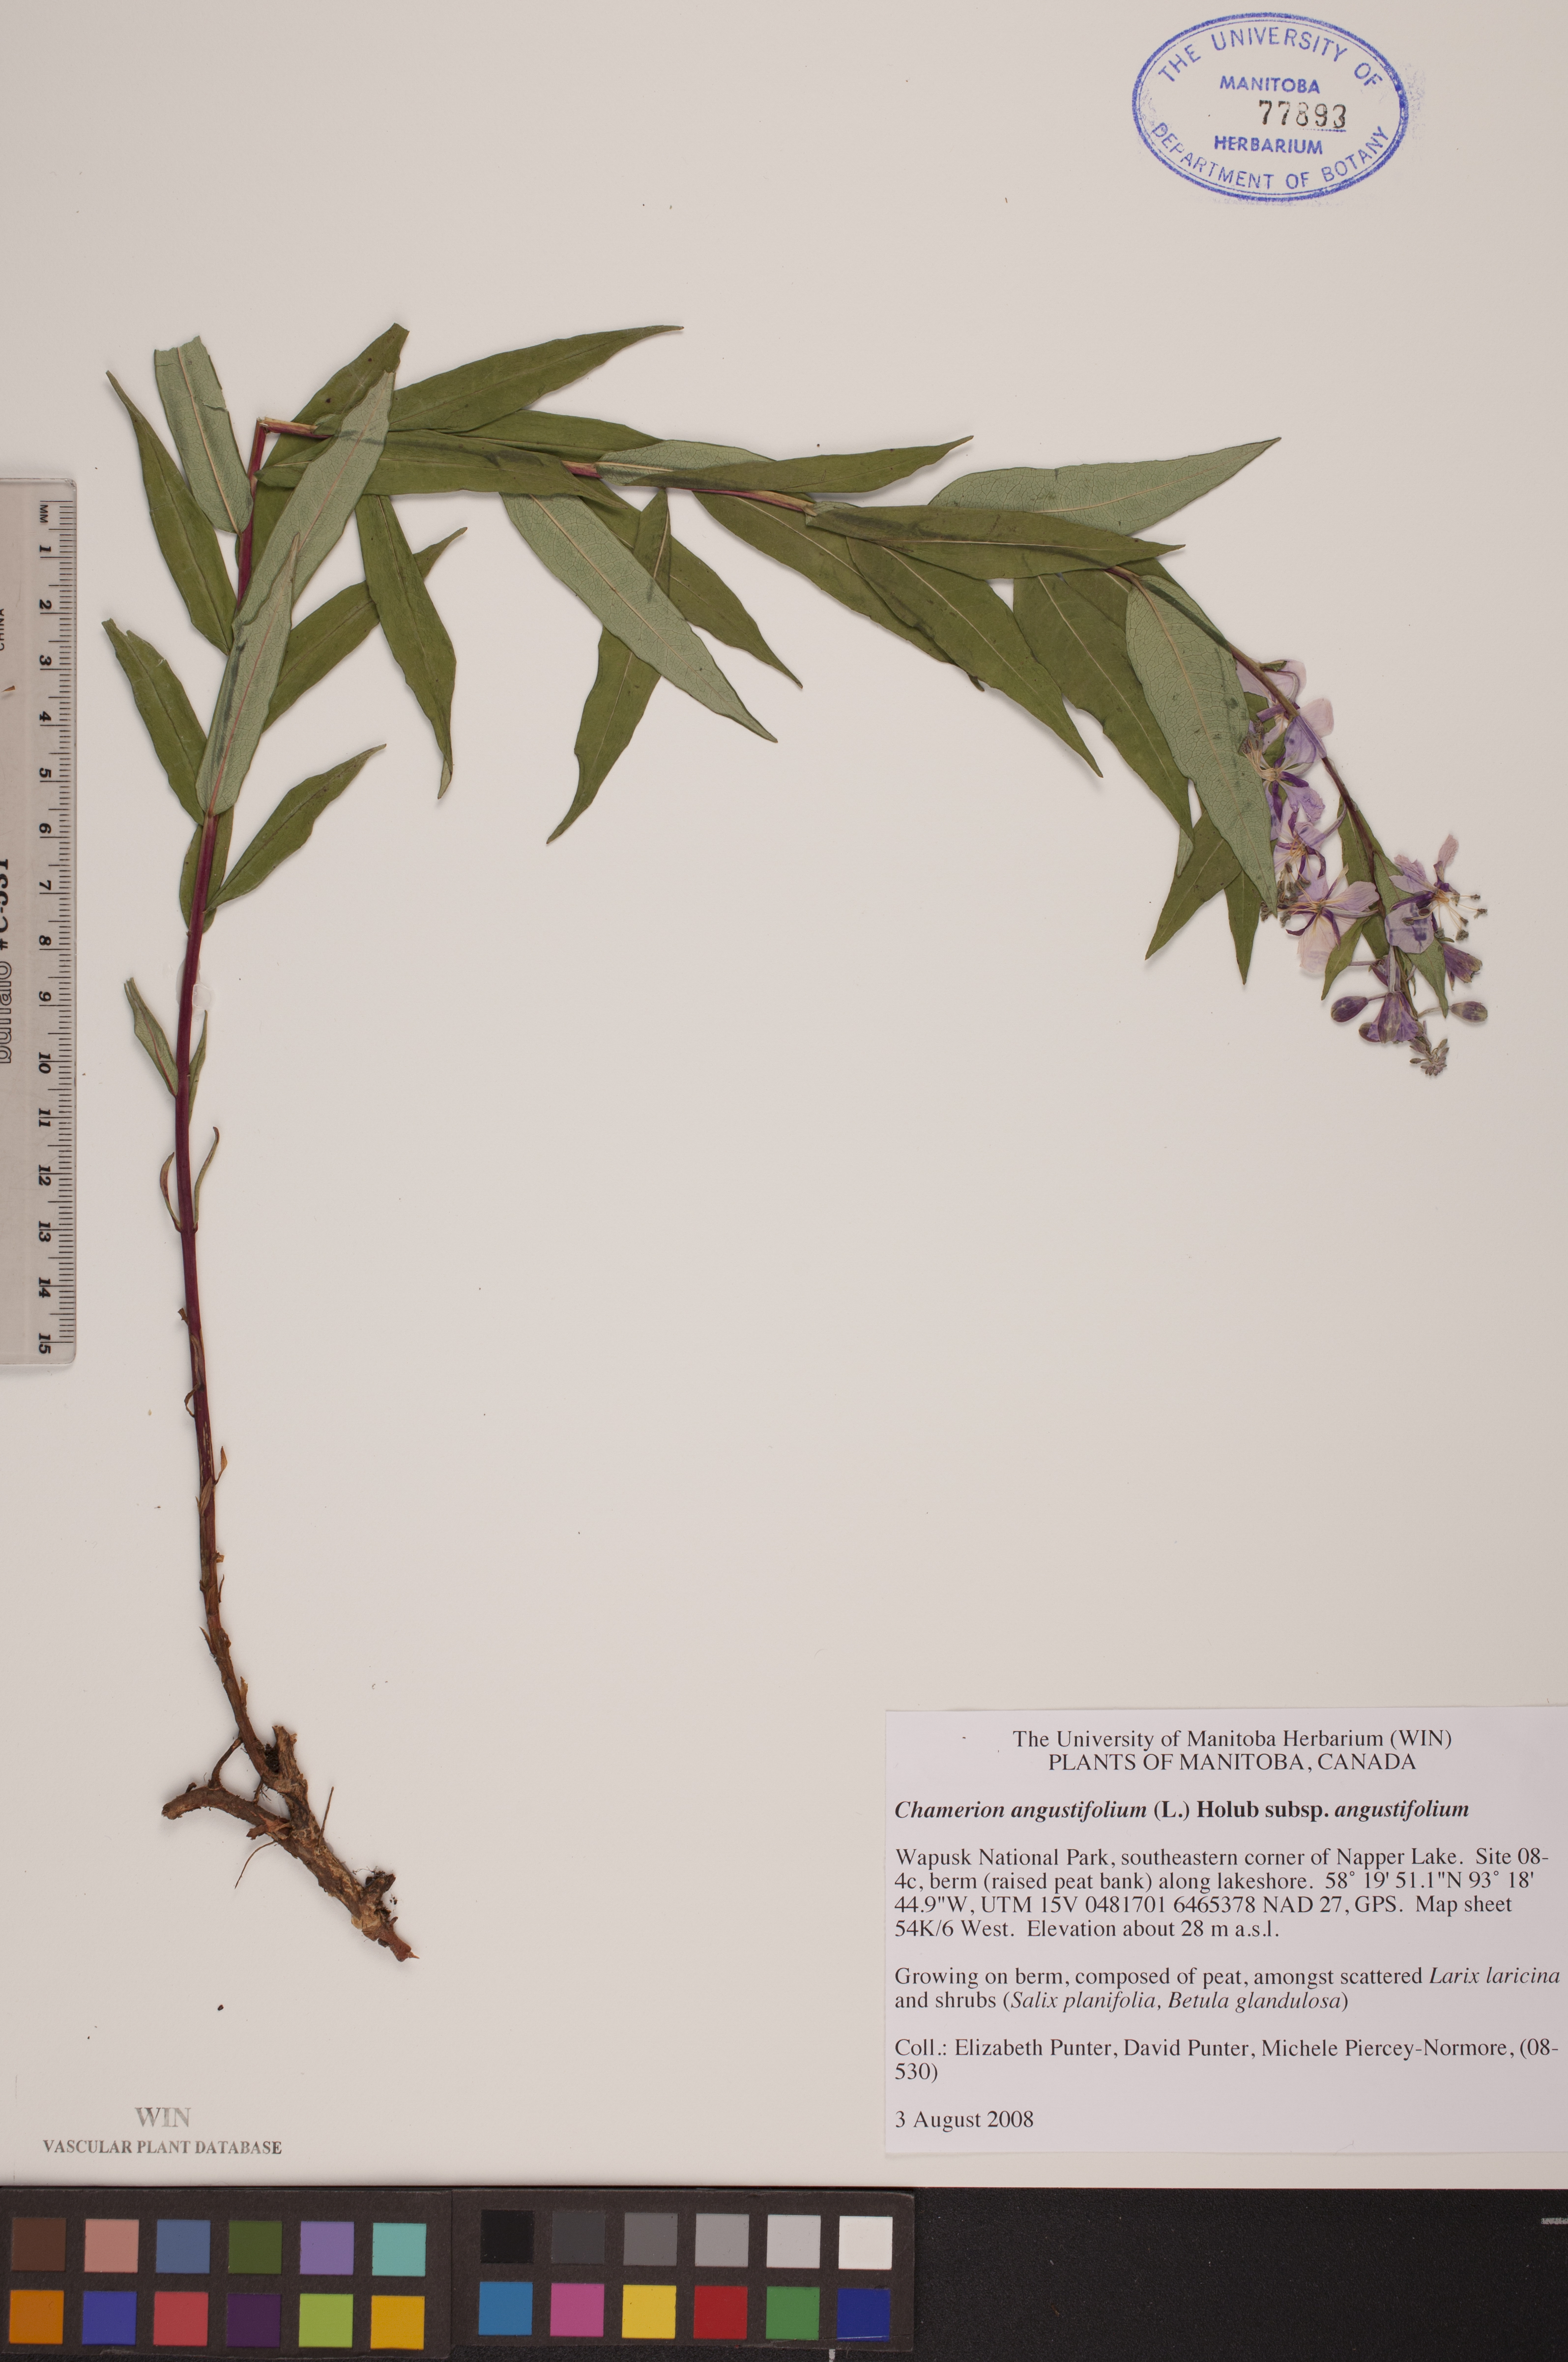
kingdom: Plantae
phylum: Tracheophyta
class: Magnoliopsida
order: Myrtales
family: Onagraceae
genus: Chamaenerion
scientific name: Chamaenerion angustifolium
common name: Fireweed
